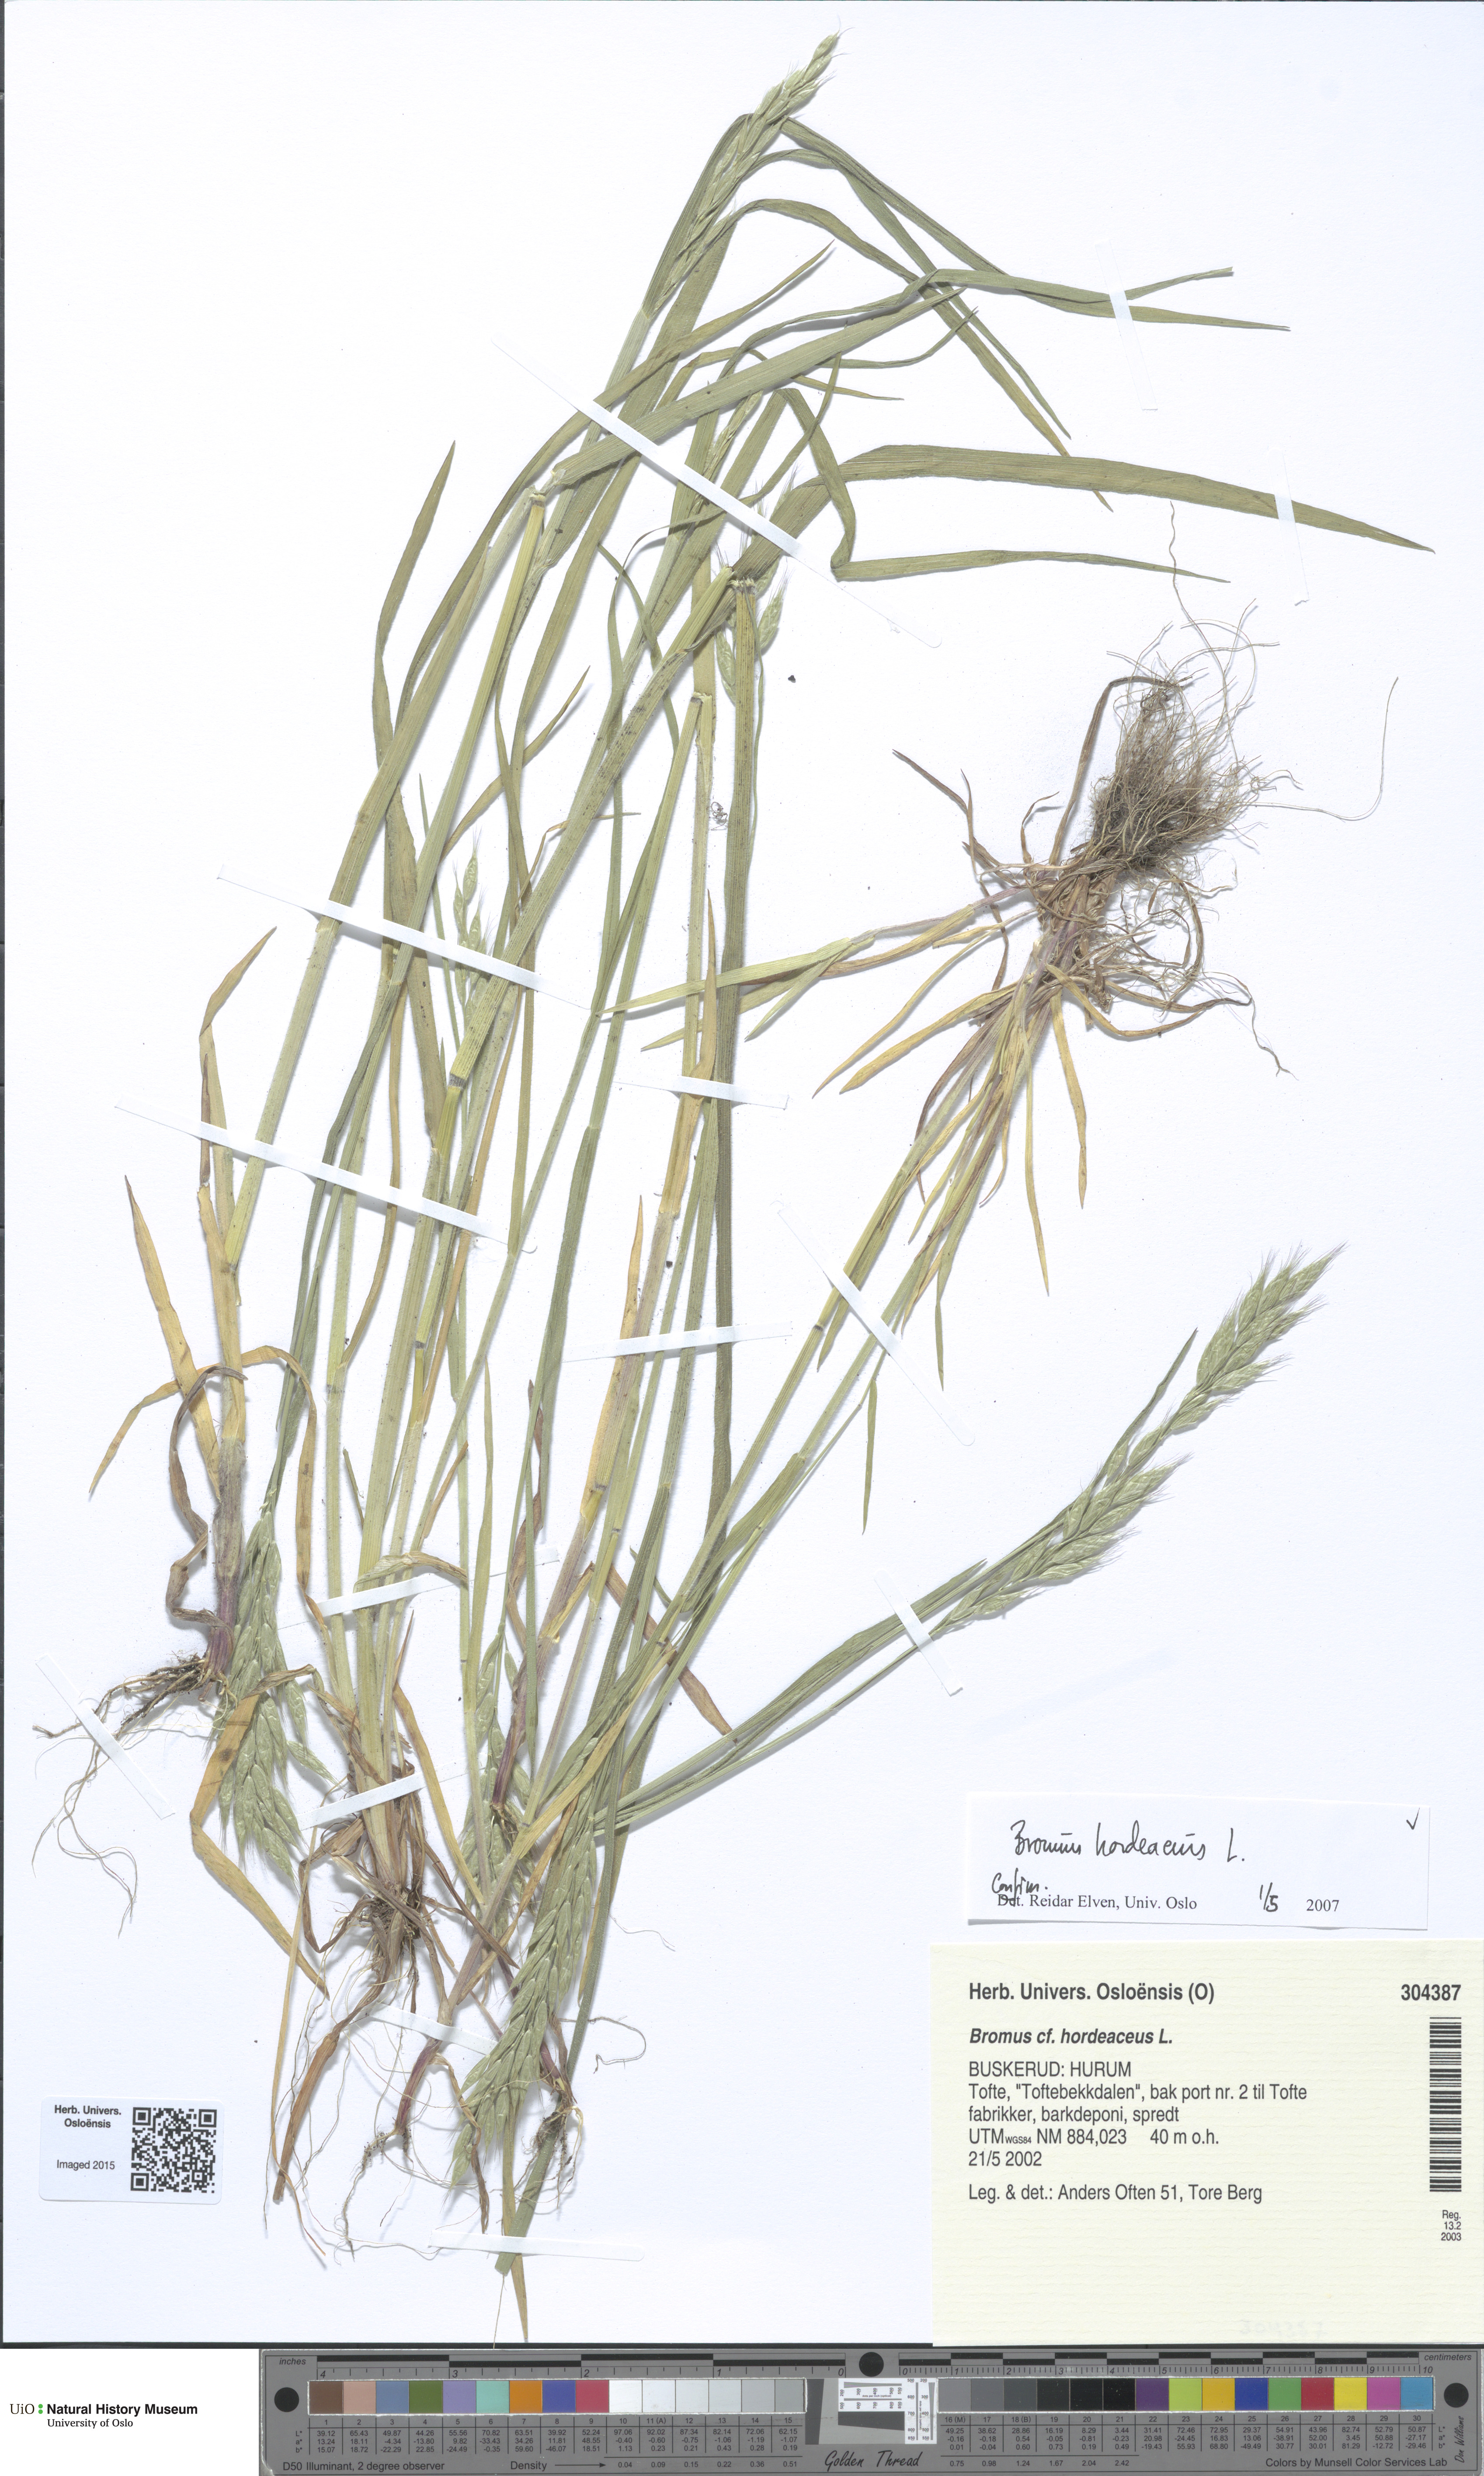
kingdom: Plantae
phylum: Tracheophyta
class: Liliopsida
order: Poales
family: Poaceae
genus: Bromus
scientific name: Bromus hordeaceus
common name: Soft brome
